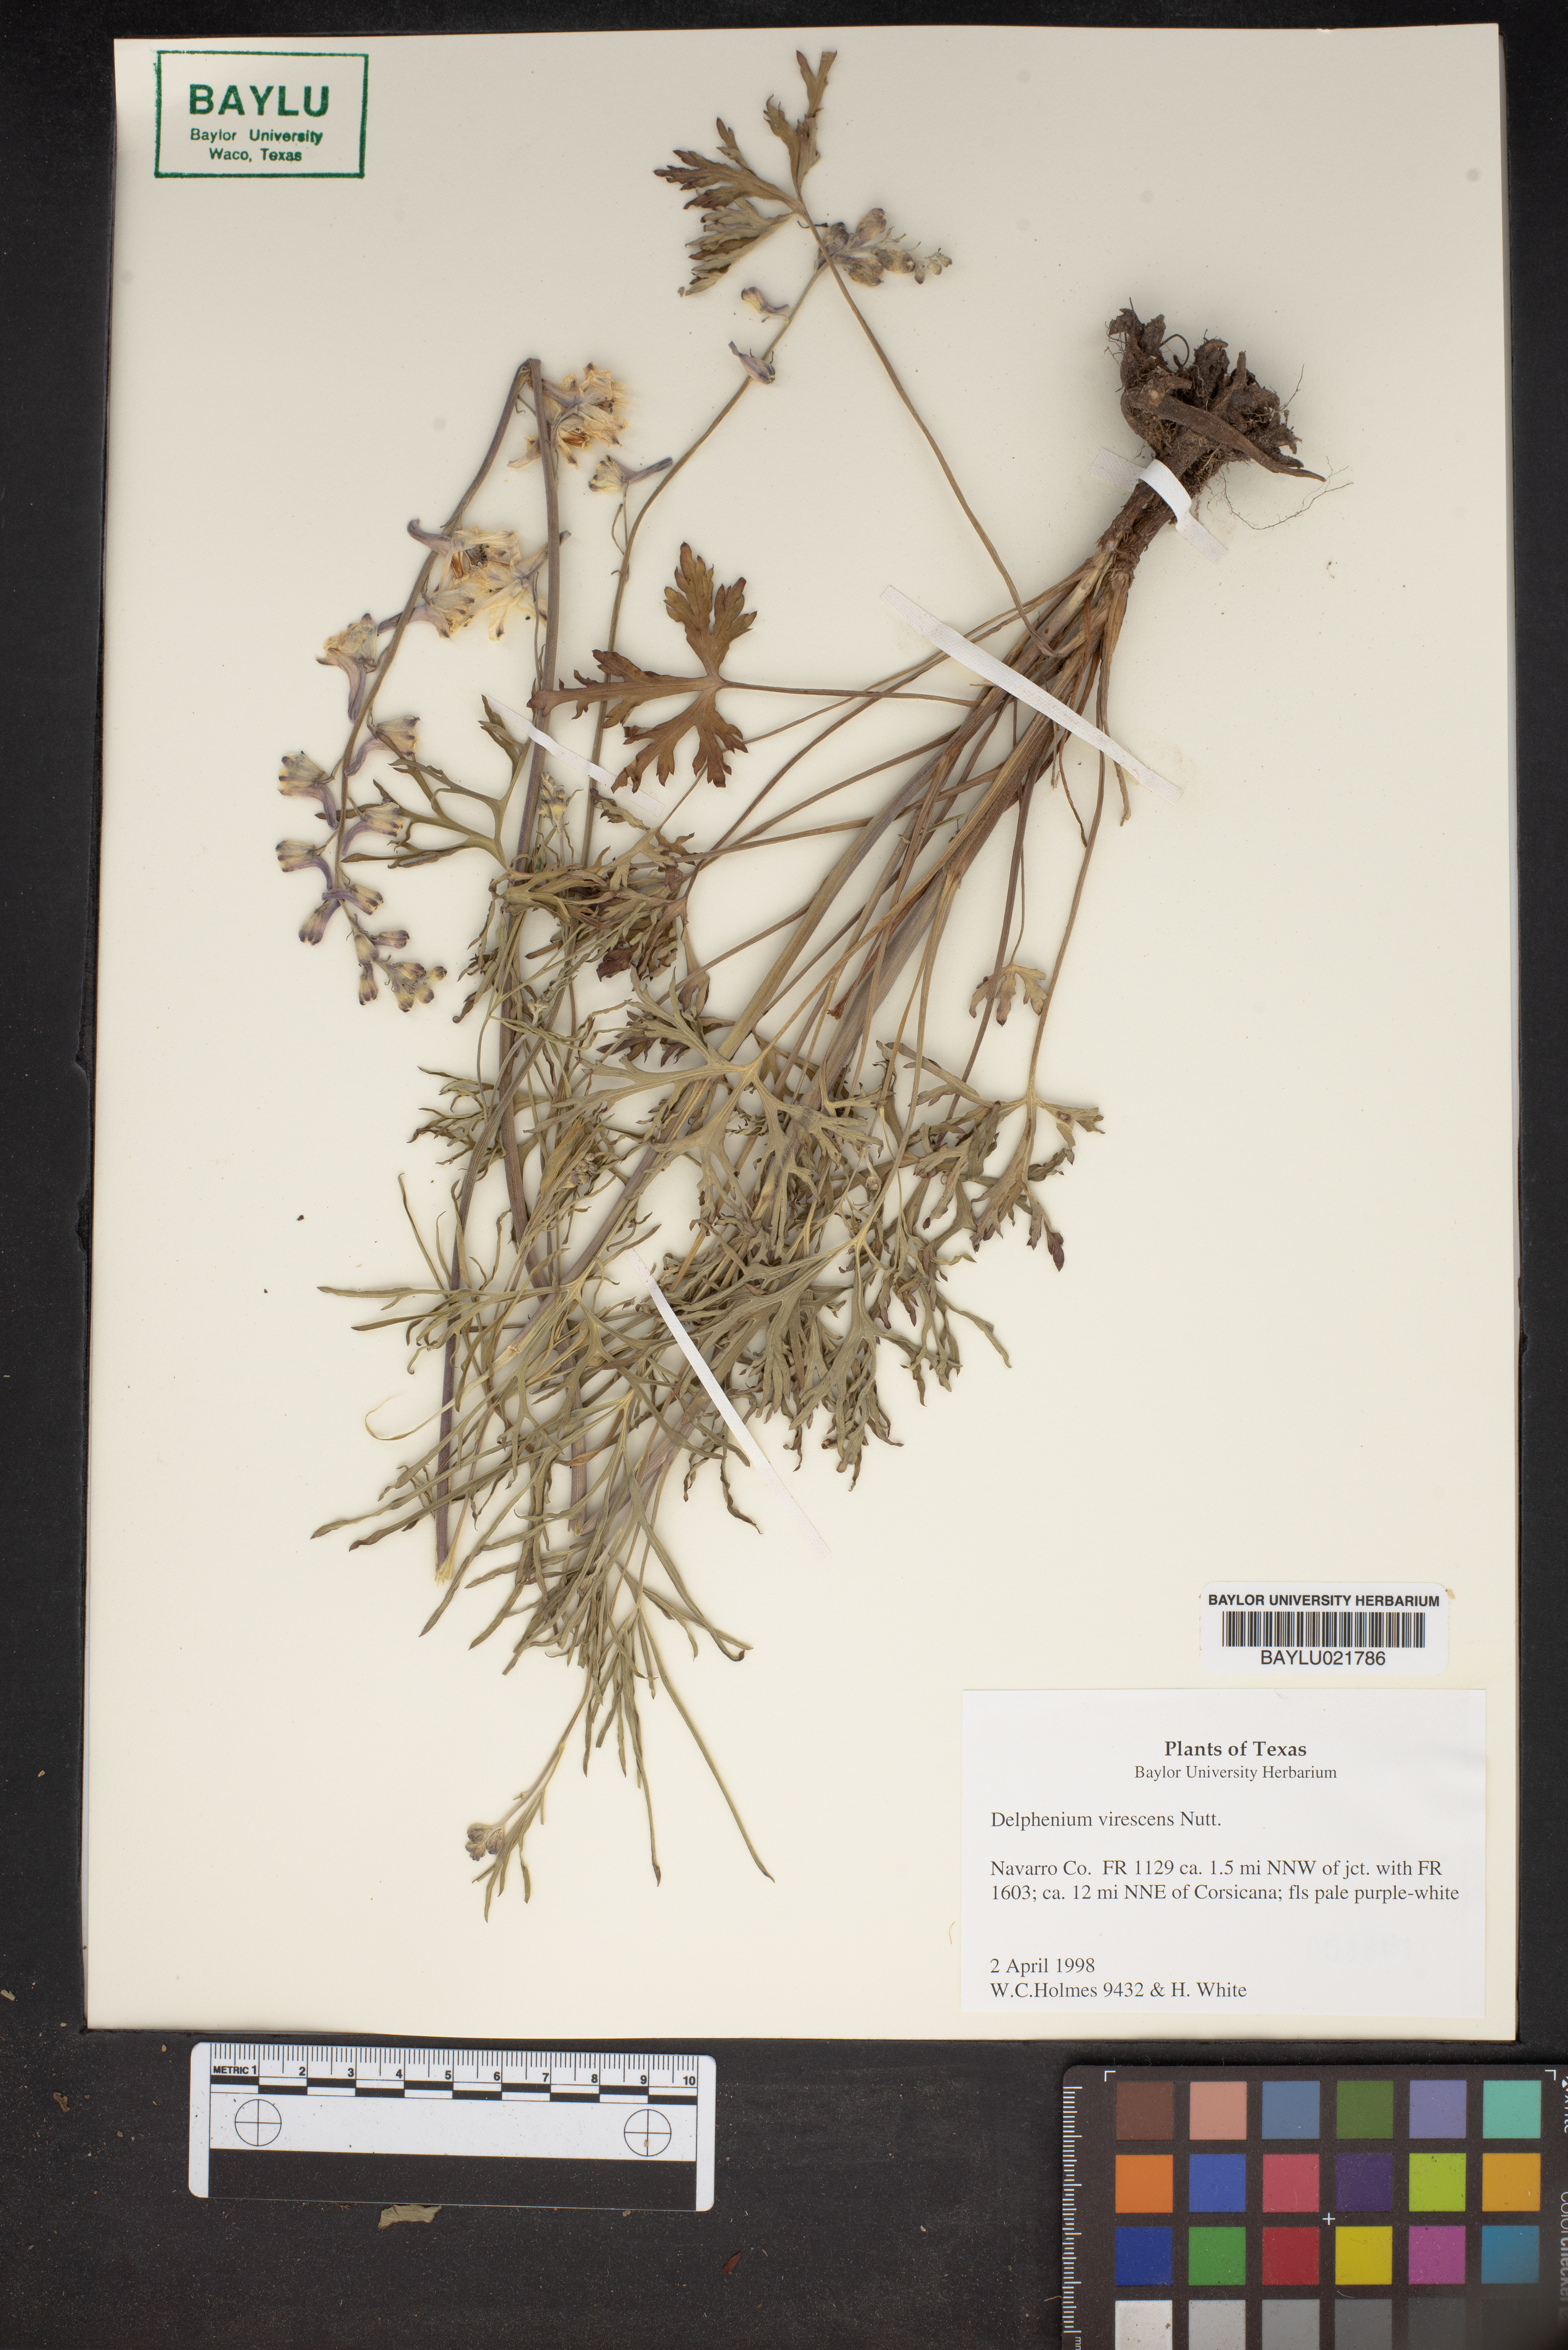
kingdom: Plantae
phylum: Tracheophyta
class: Magnoliopsida
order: Ranunculales
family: Ranunculaceae
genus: Delphinium
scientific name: Delphinium carolinianum
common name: Carolina larkspur
